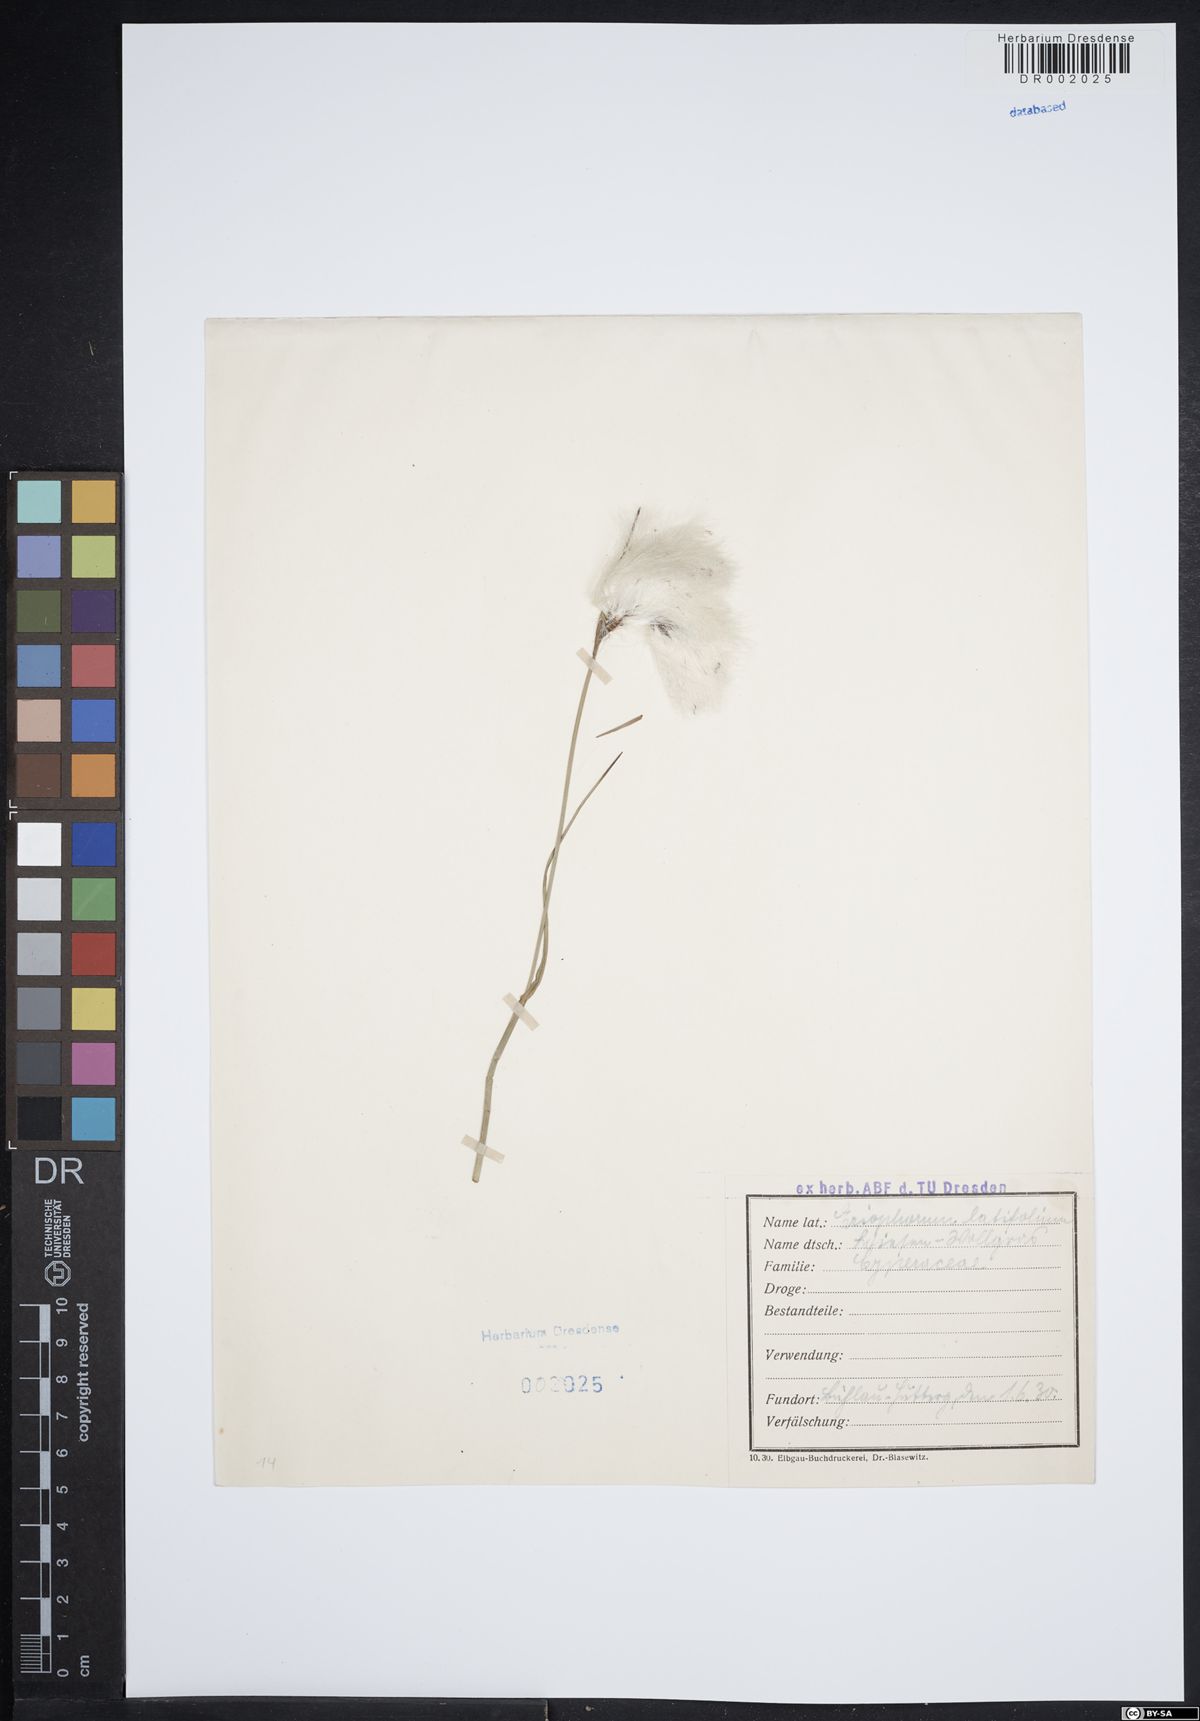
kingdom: Plantae
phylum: Tracheophyta
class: Liliopsida
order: Poales
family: Cyperaceae
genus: Eriophorum
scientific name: Eriophorum latifolium
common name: Broad-leaved cottongrass
